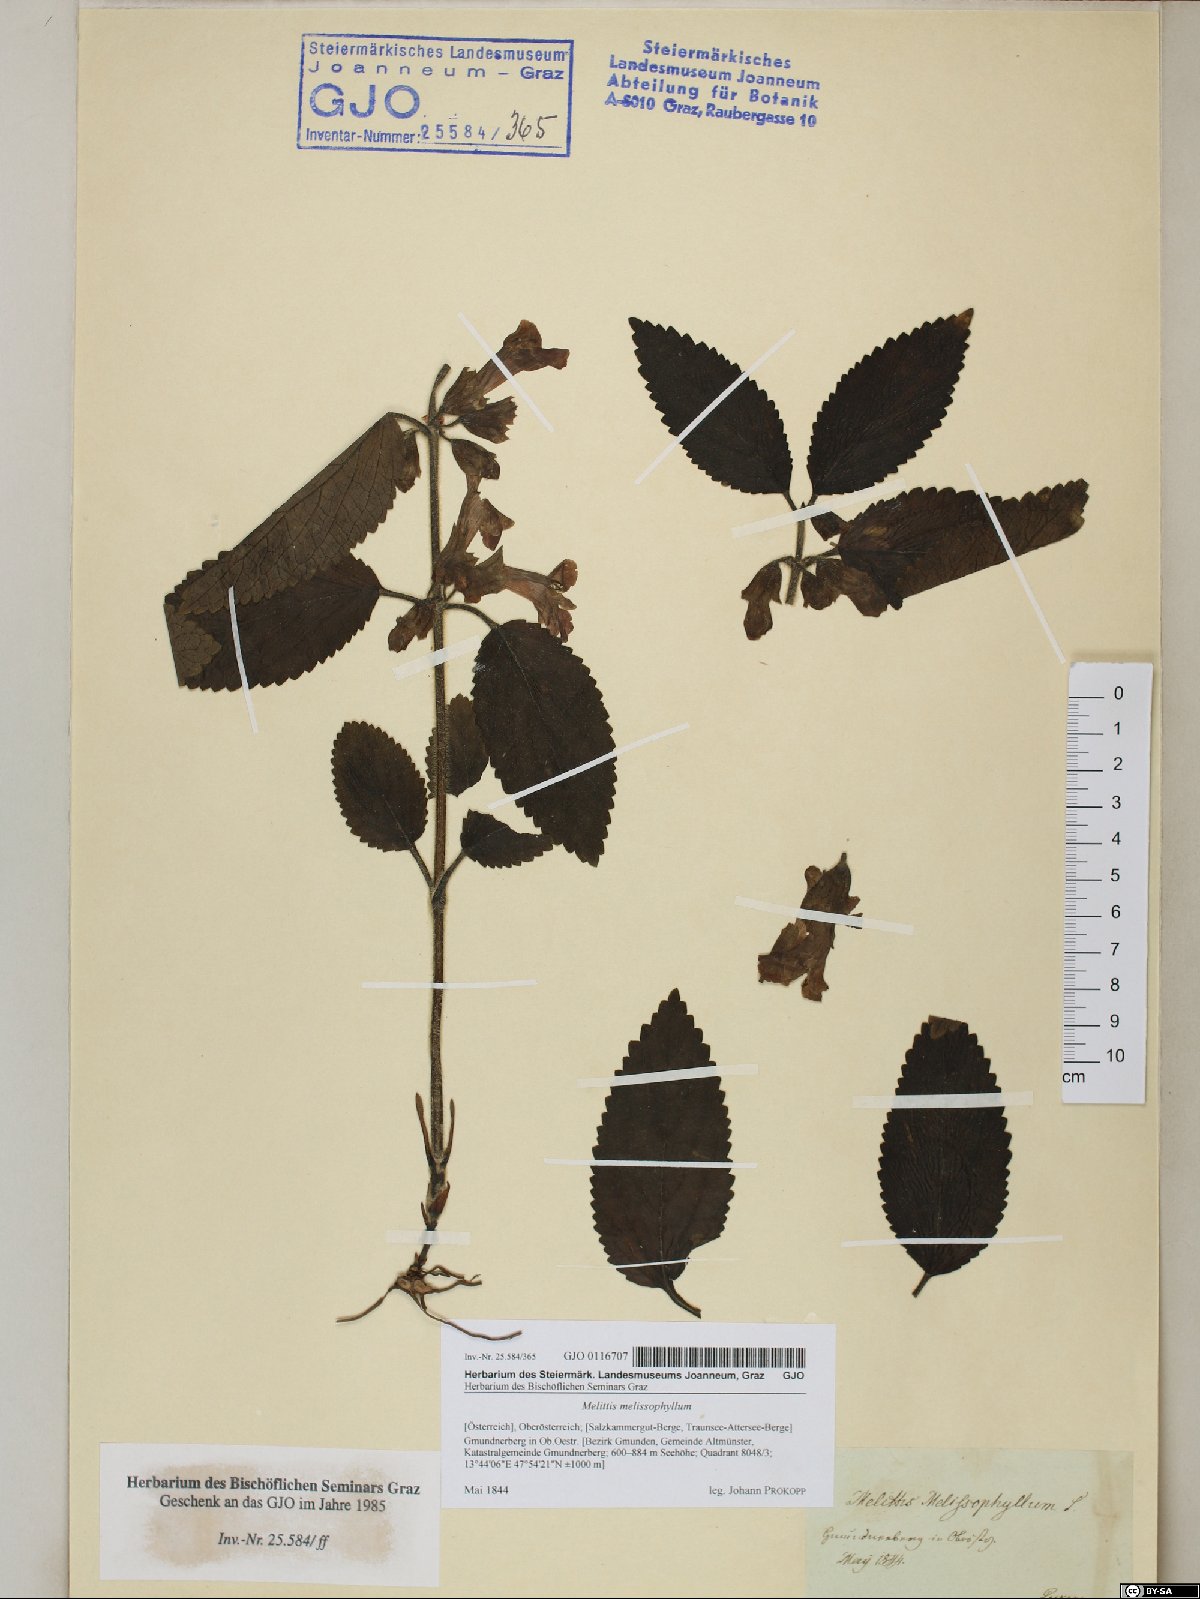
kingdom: Plantae
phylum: Tracheophyta
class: Magnoliopsida
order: Lamiales
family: Lamiaceae
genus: Melittis
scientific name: Melittis melissophyllum
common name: Bastard balm
